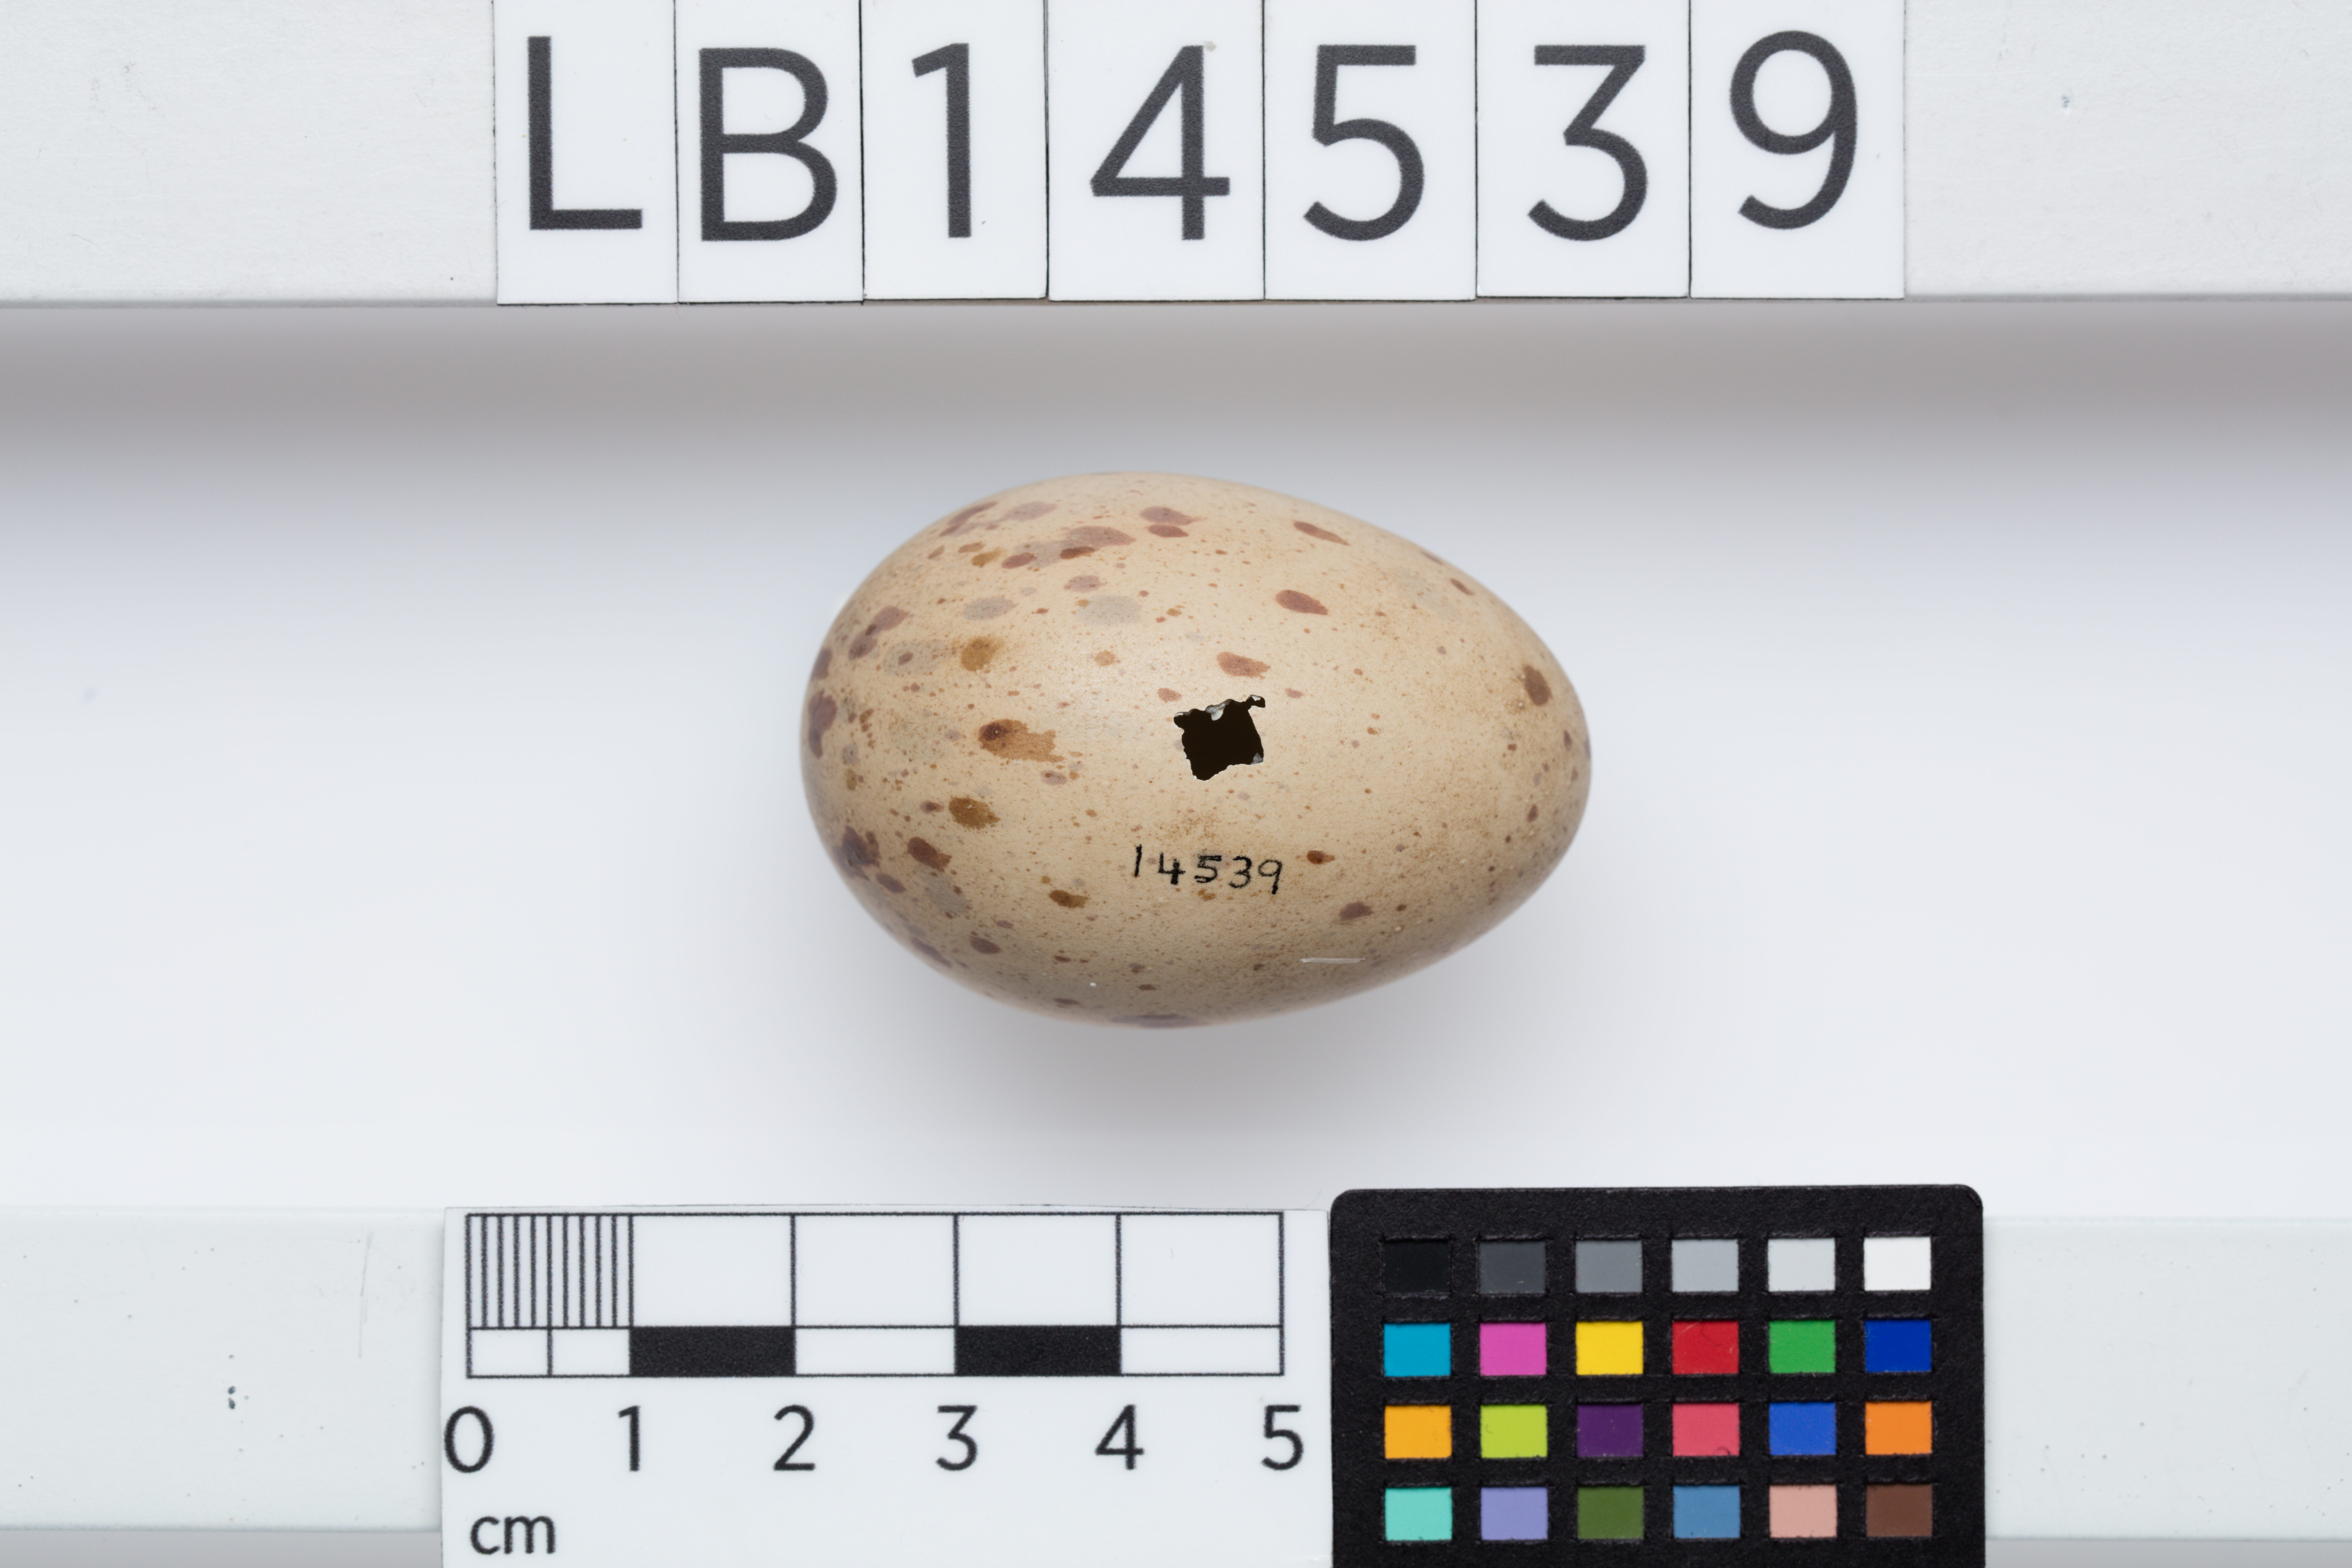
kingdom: Animalia
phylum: Chordata
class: Aves
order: Gruiformes
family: Rallidae
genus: Porphyrio
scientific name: Porphyrio melanotus
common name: Australasian swamphen
